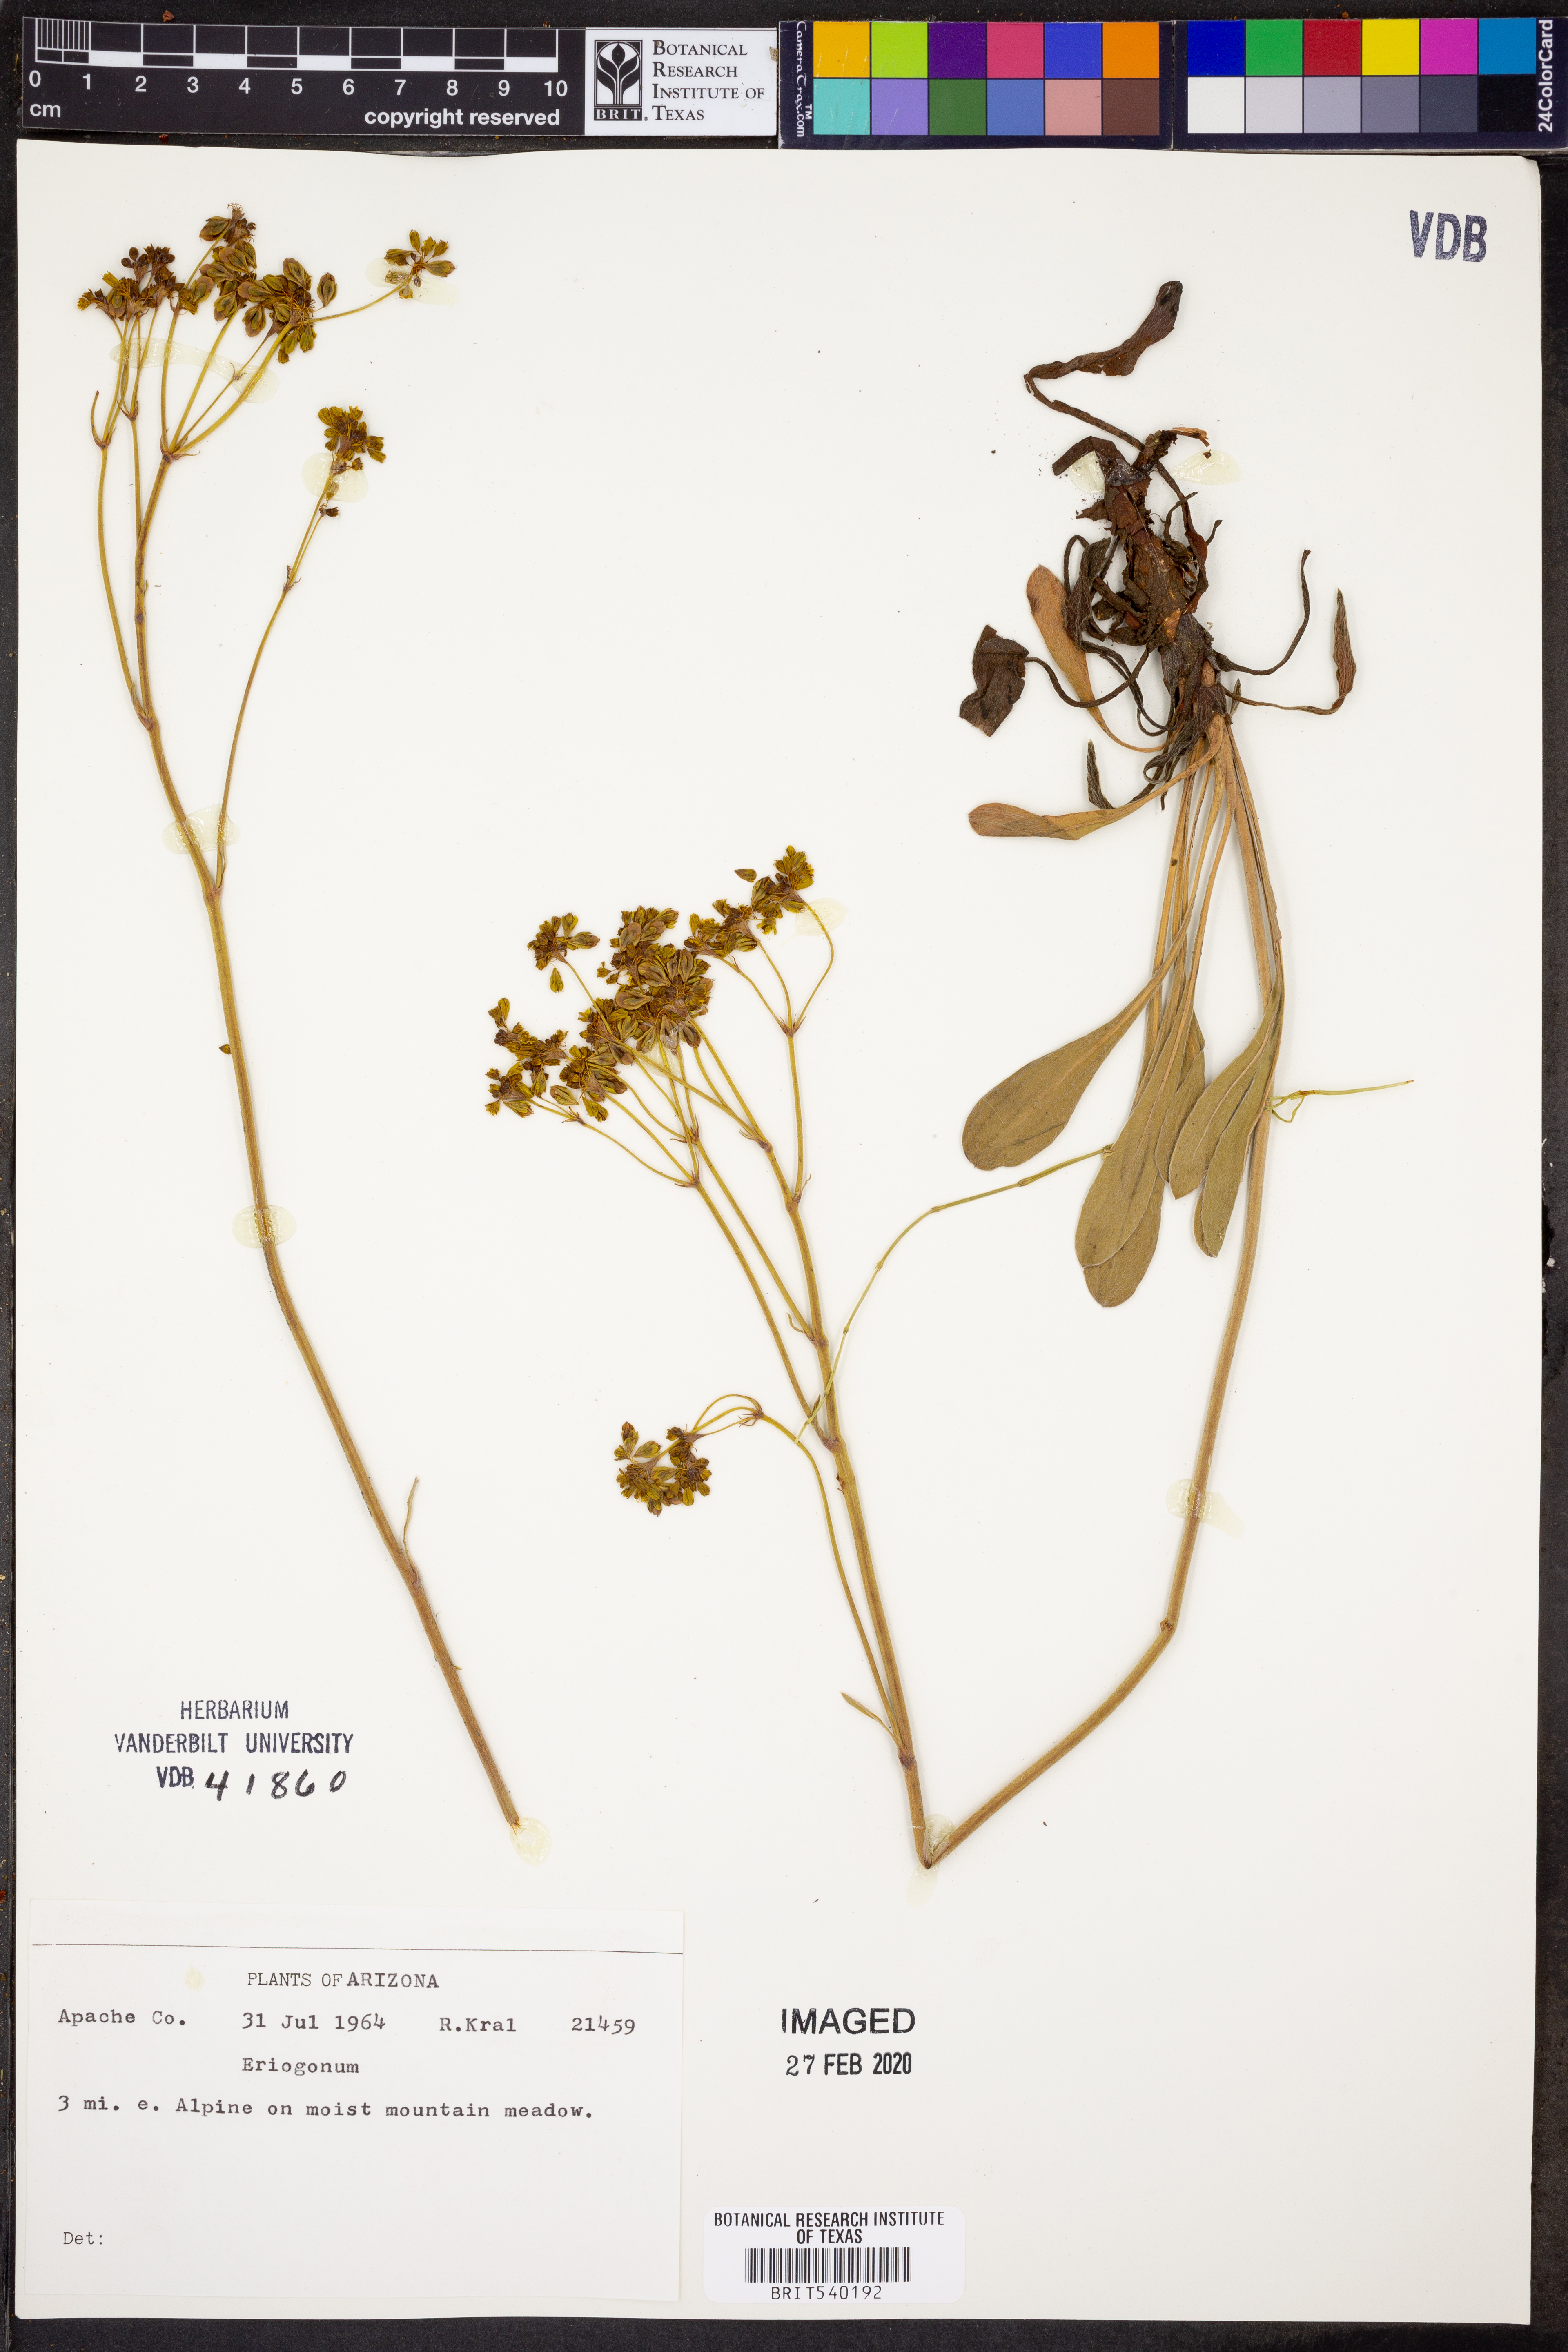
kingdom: Plantae
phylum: Tracheophyta
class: Magnoliopsida
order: Caryophyllales
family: Polygonaceae
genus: Eriogonum
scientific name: Eriogonum
